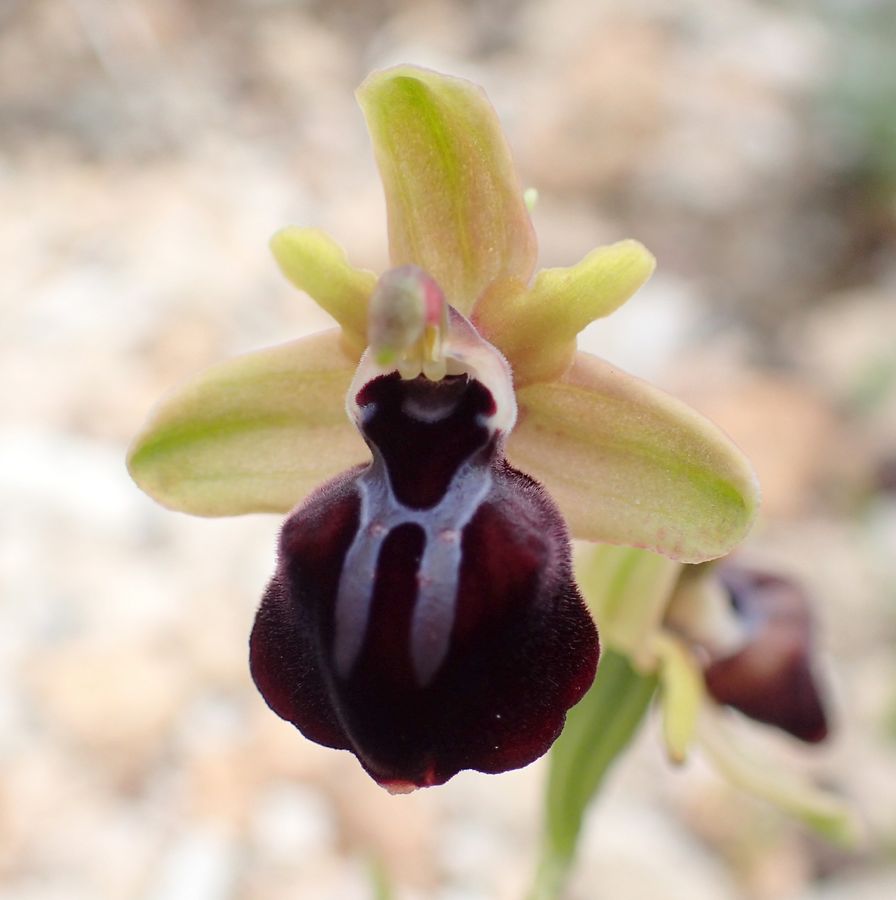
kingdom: Plantae
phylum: Tracheophyta
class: Liliopsida
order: Asparagales
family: Orchidaceae
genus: Ophrys
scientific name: Ophrys sphegodes
